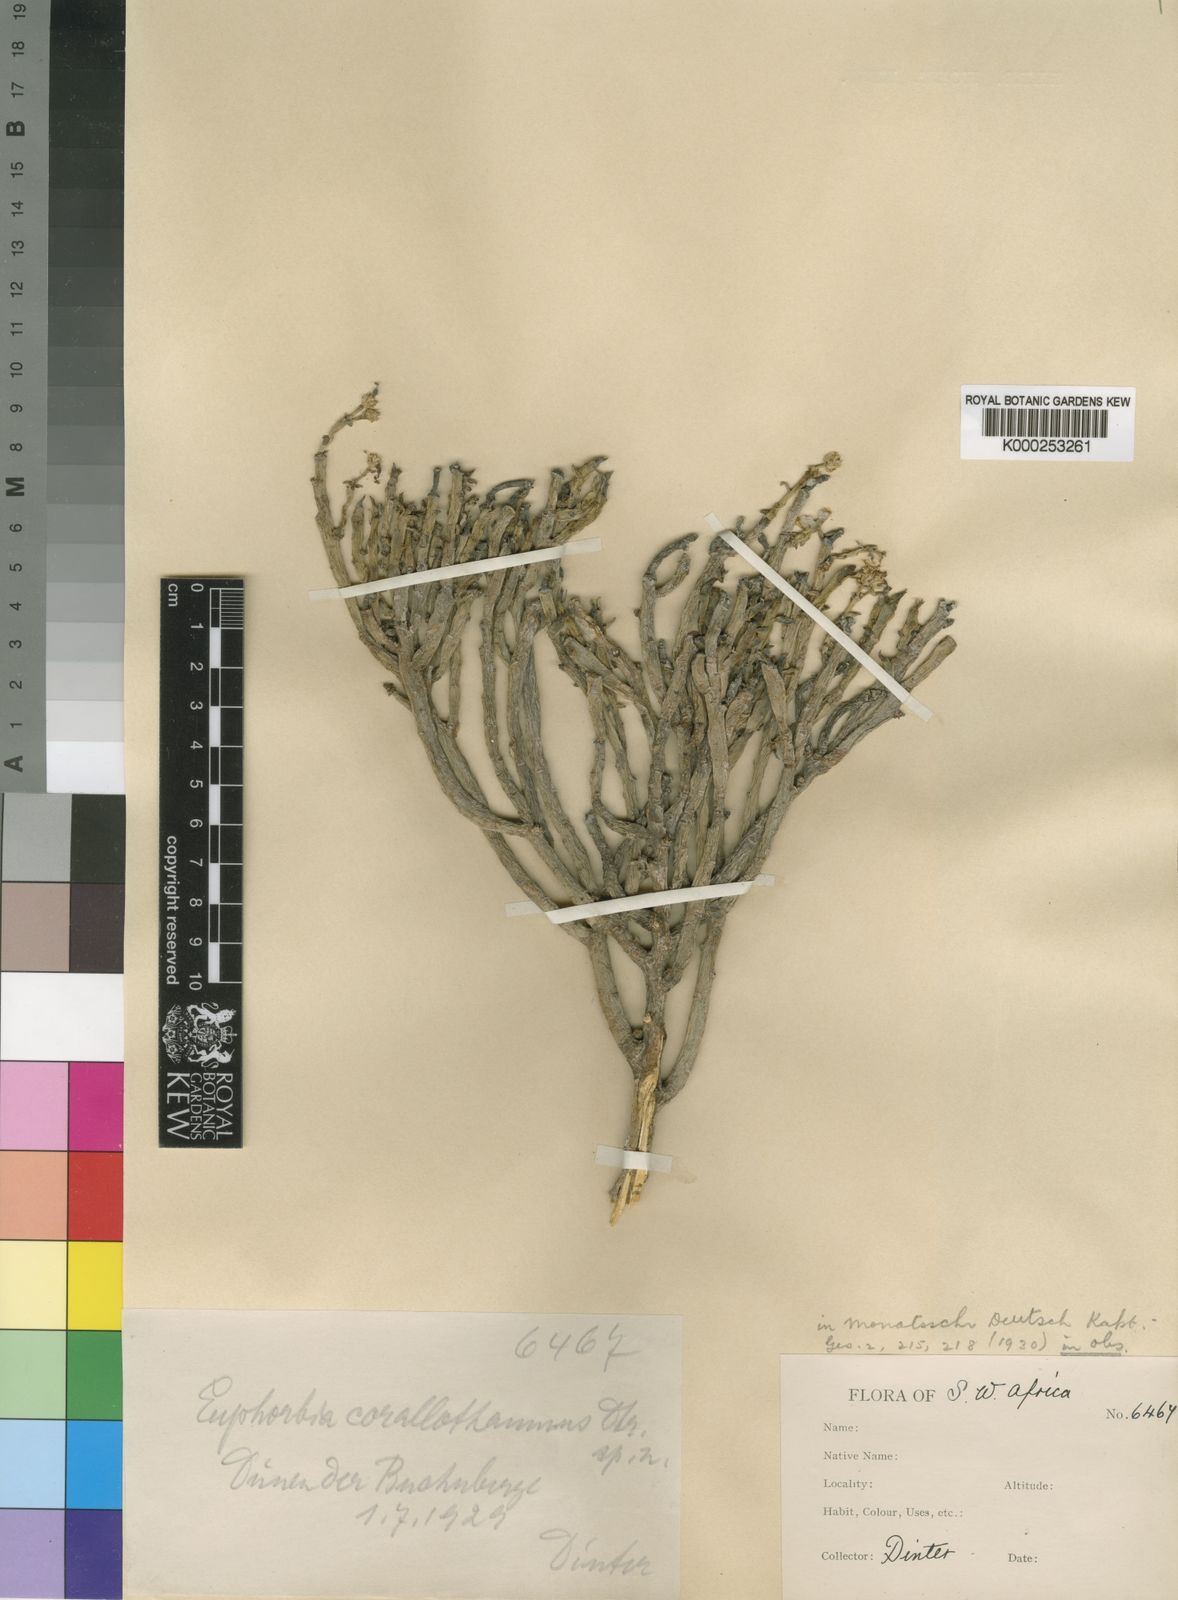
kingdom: Plantae
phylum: Tracheophyta
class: Magnoliopsida
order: Malpighiales
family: Euphorbiaceae
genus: Euphorbia
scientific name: Euphorbia mauritanica
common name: Jackal's-food
